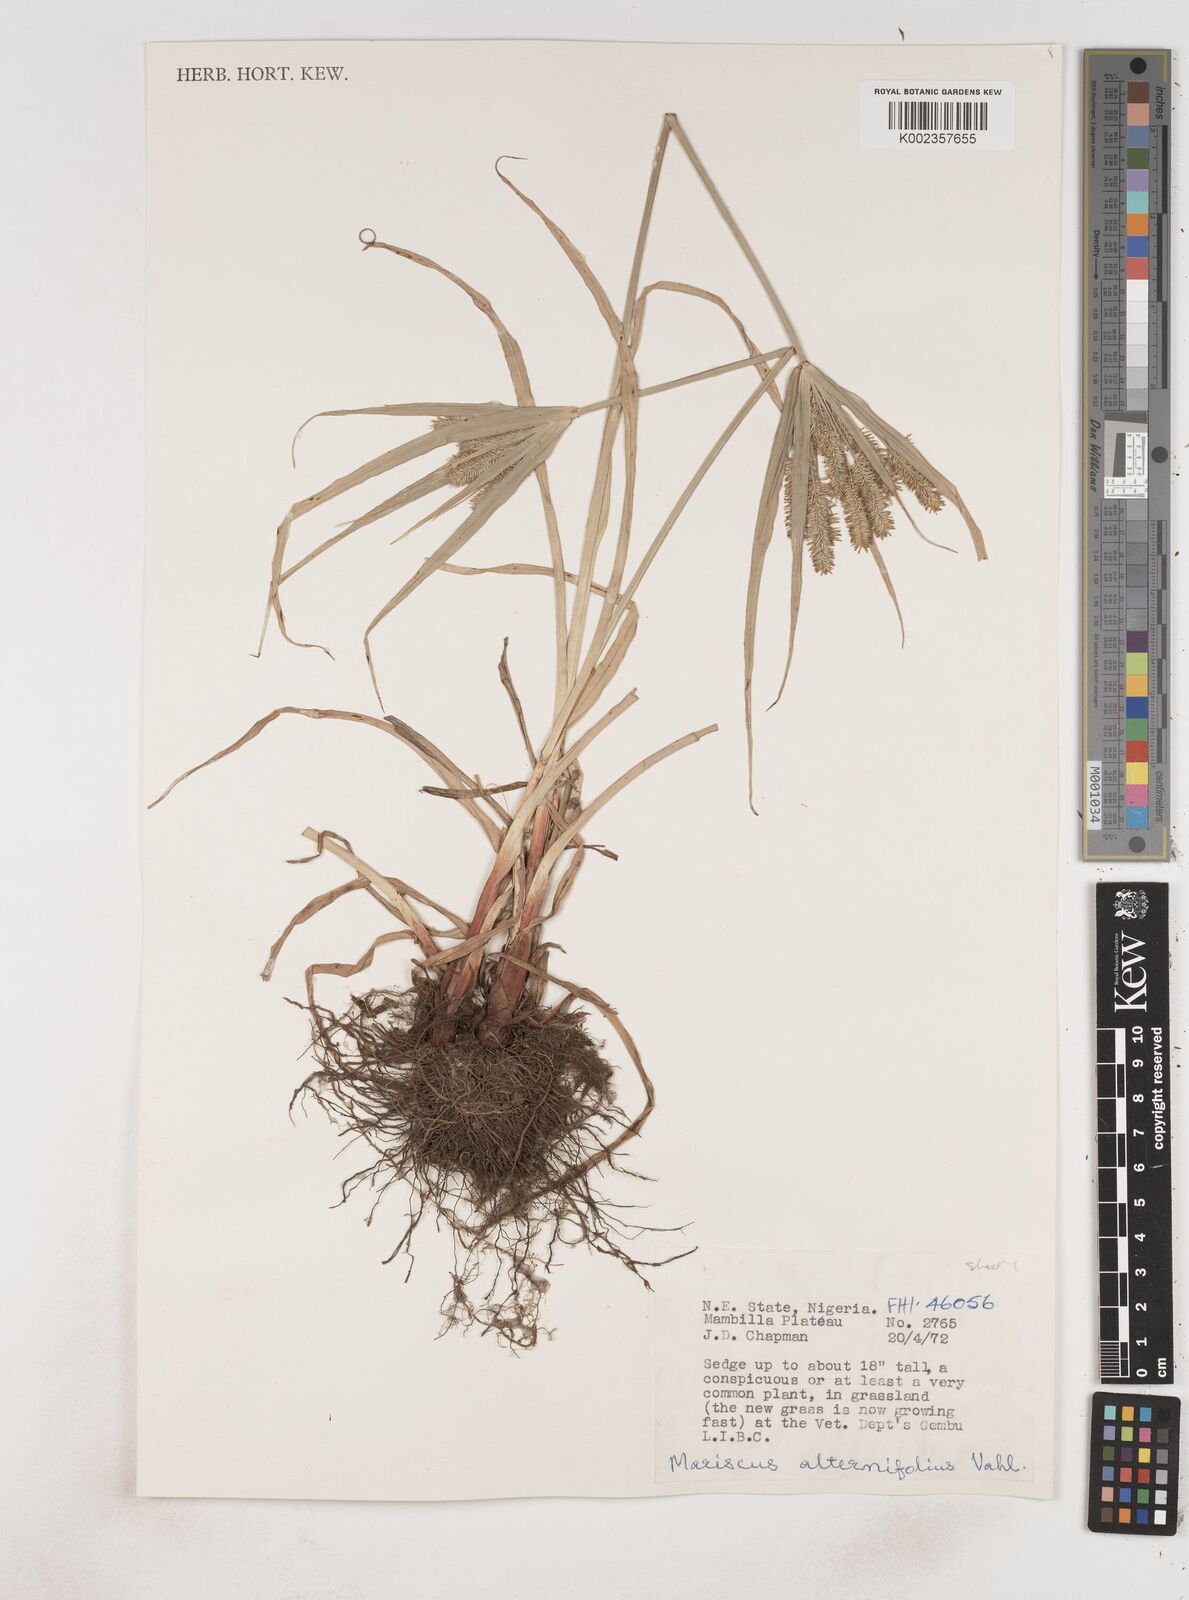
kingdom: Plantae
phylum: Tracheophyta
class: Liliopsida
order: Poales
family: Cyperaceae
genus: Cyperus
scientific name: Cyperus cyperoides
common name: Pacific island flat sedge
